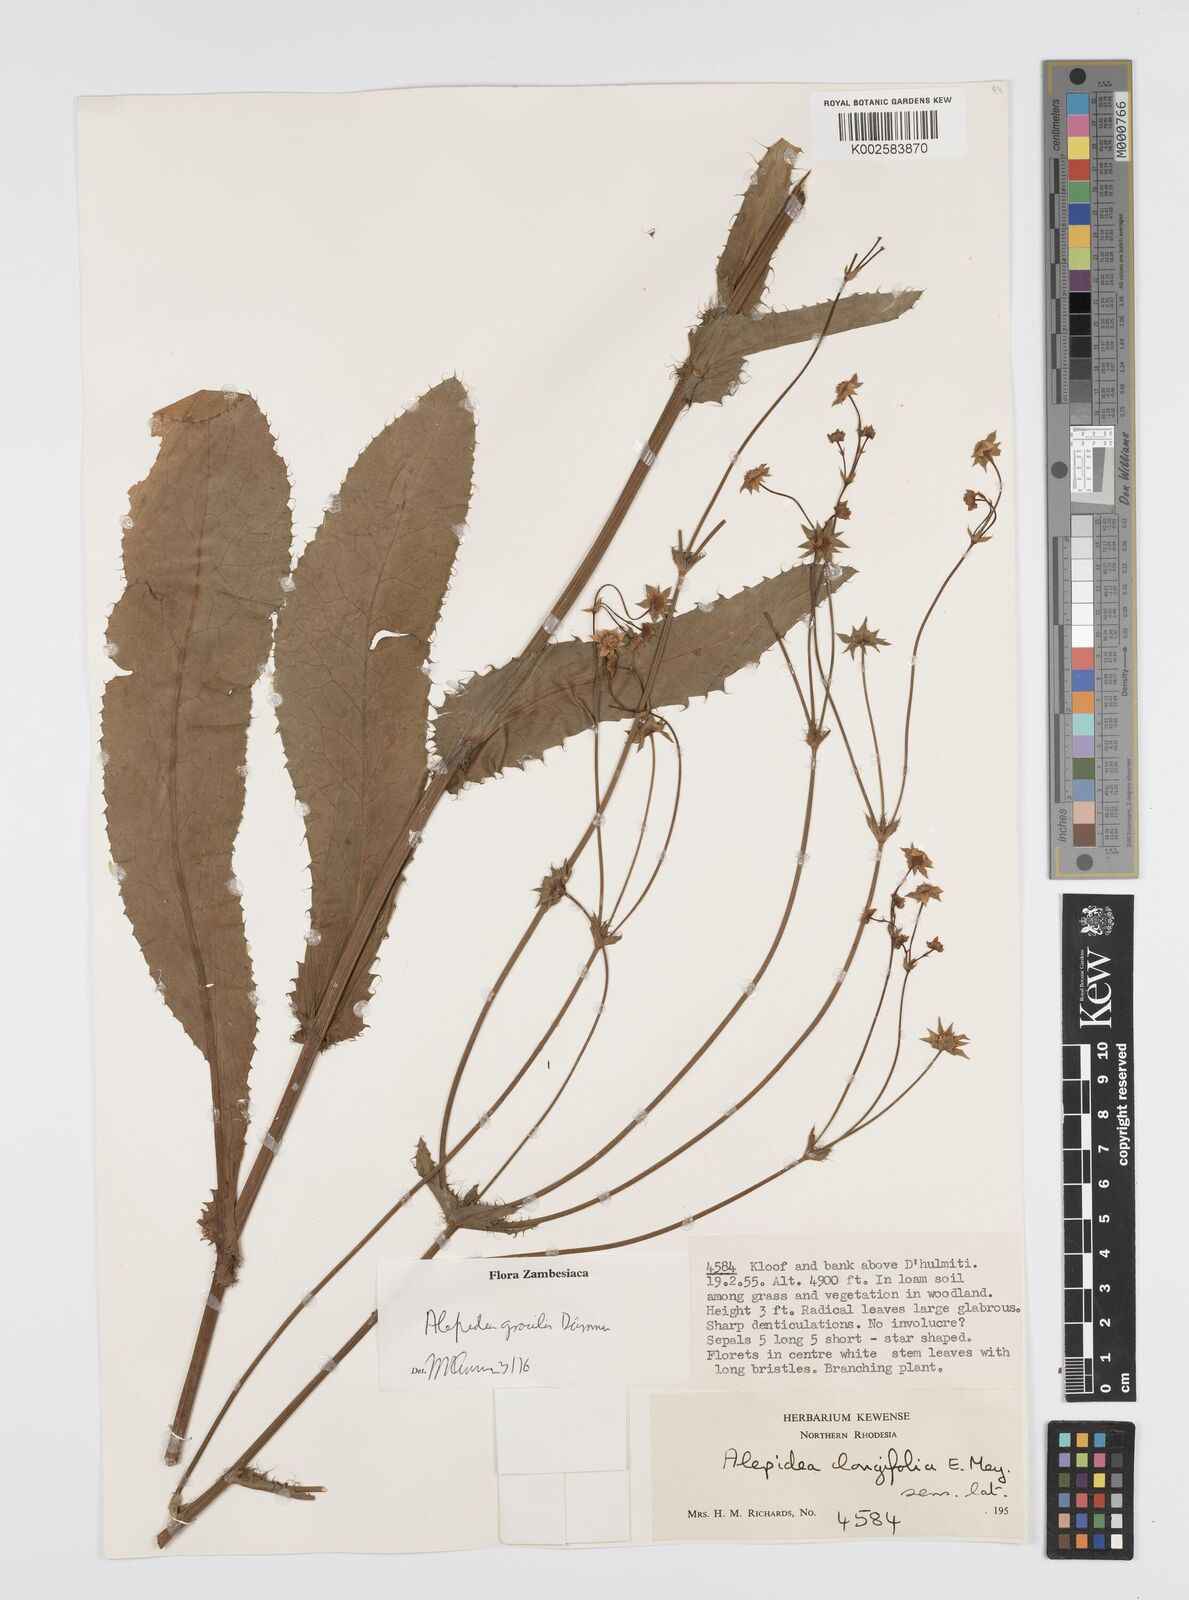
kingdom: Plantae
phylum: Tracheophyta
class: Magnoliopsida
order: Apiales
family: Apiaceae
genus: Alepidea
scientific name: Alepidea
